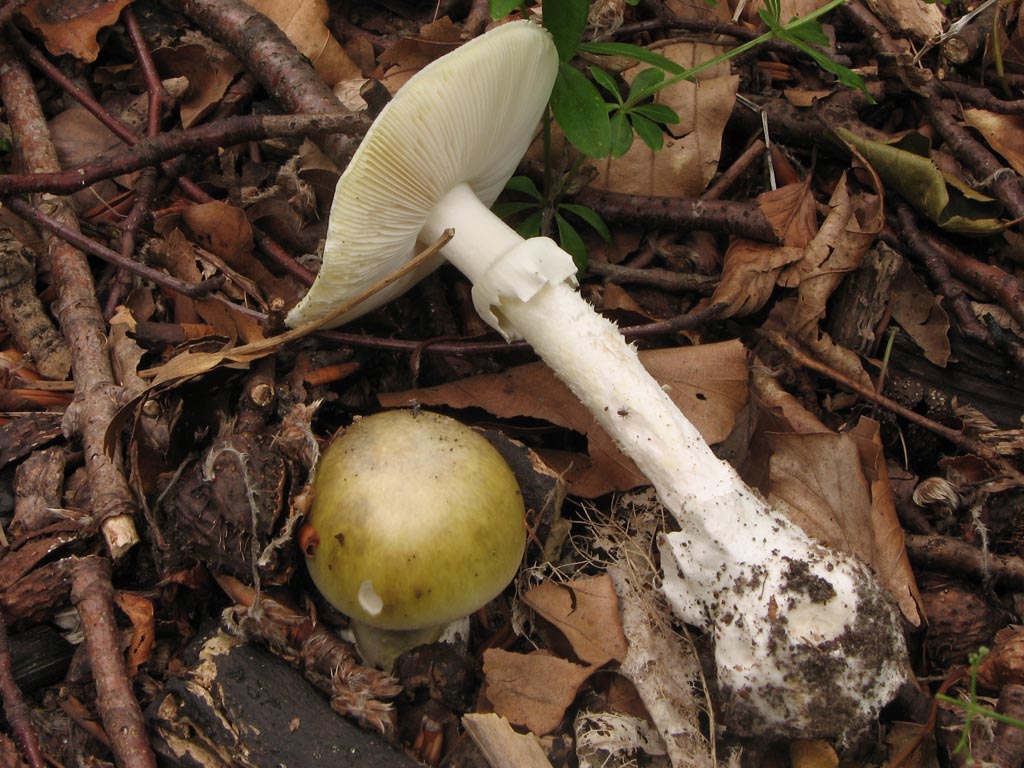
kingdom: Fungi
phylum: Basidiomycota
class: Agaricomycetes
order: Agaricales
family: Amanitaceae
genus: Amanita
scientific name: Amanita phalloides
